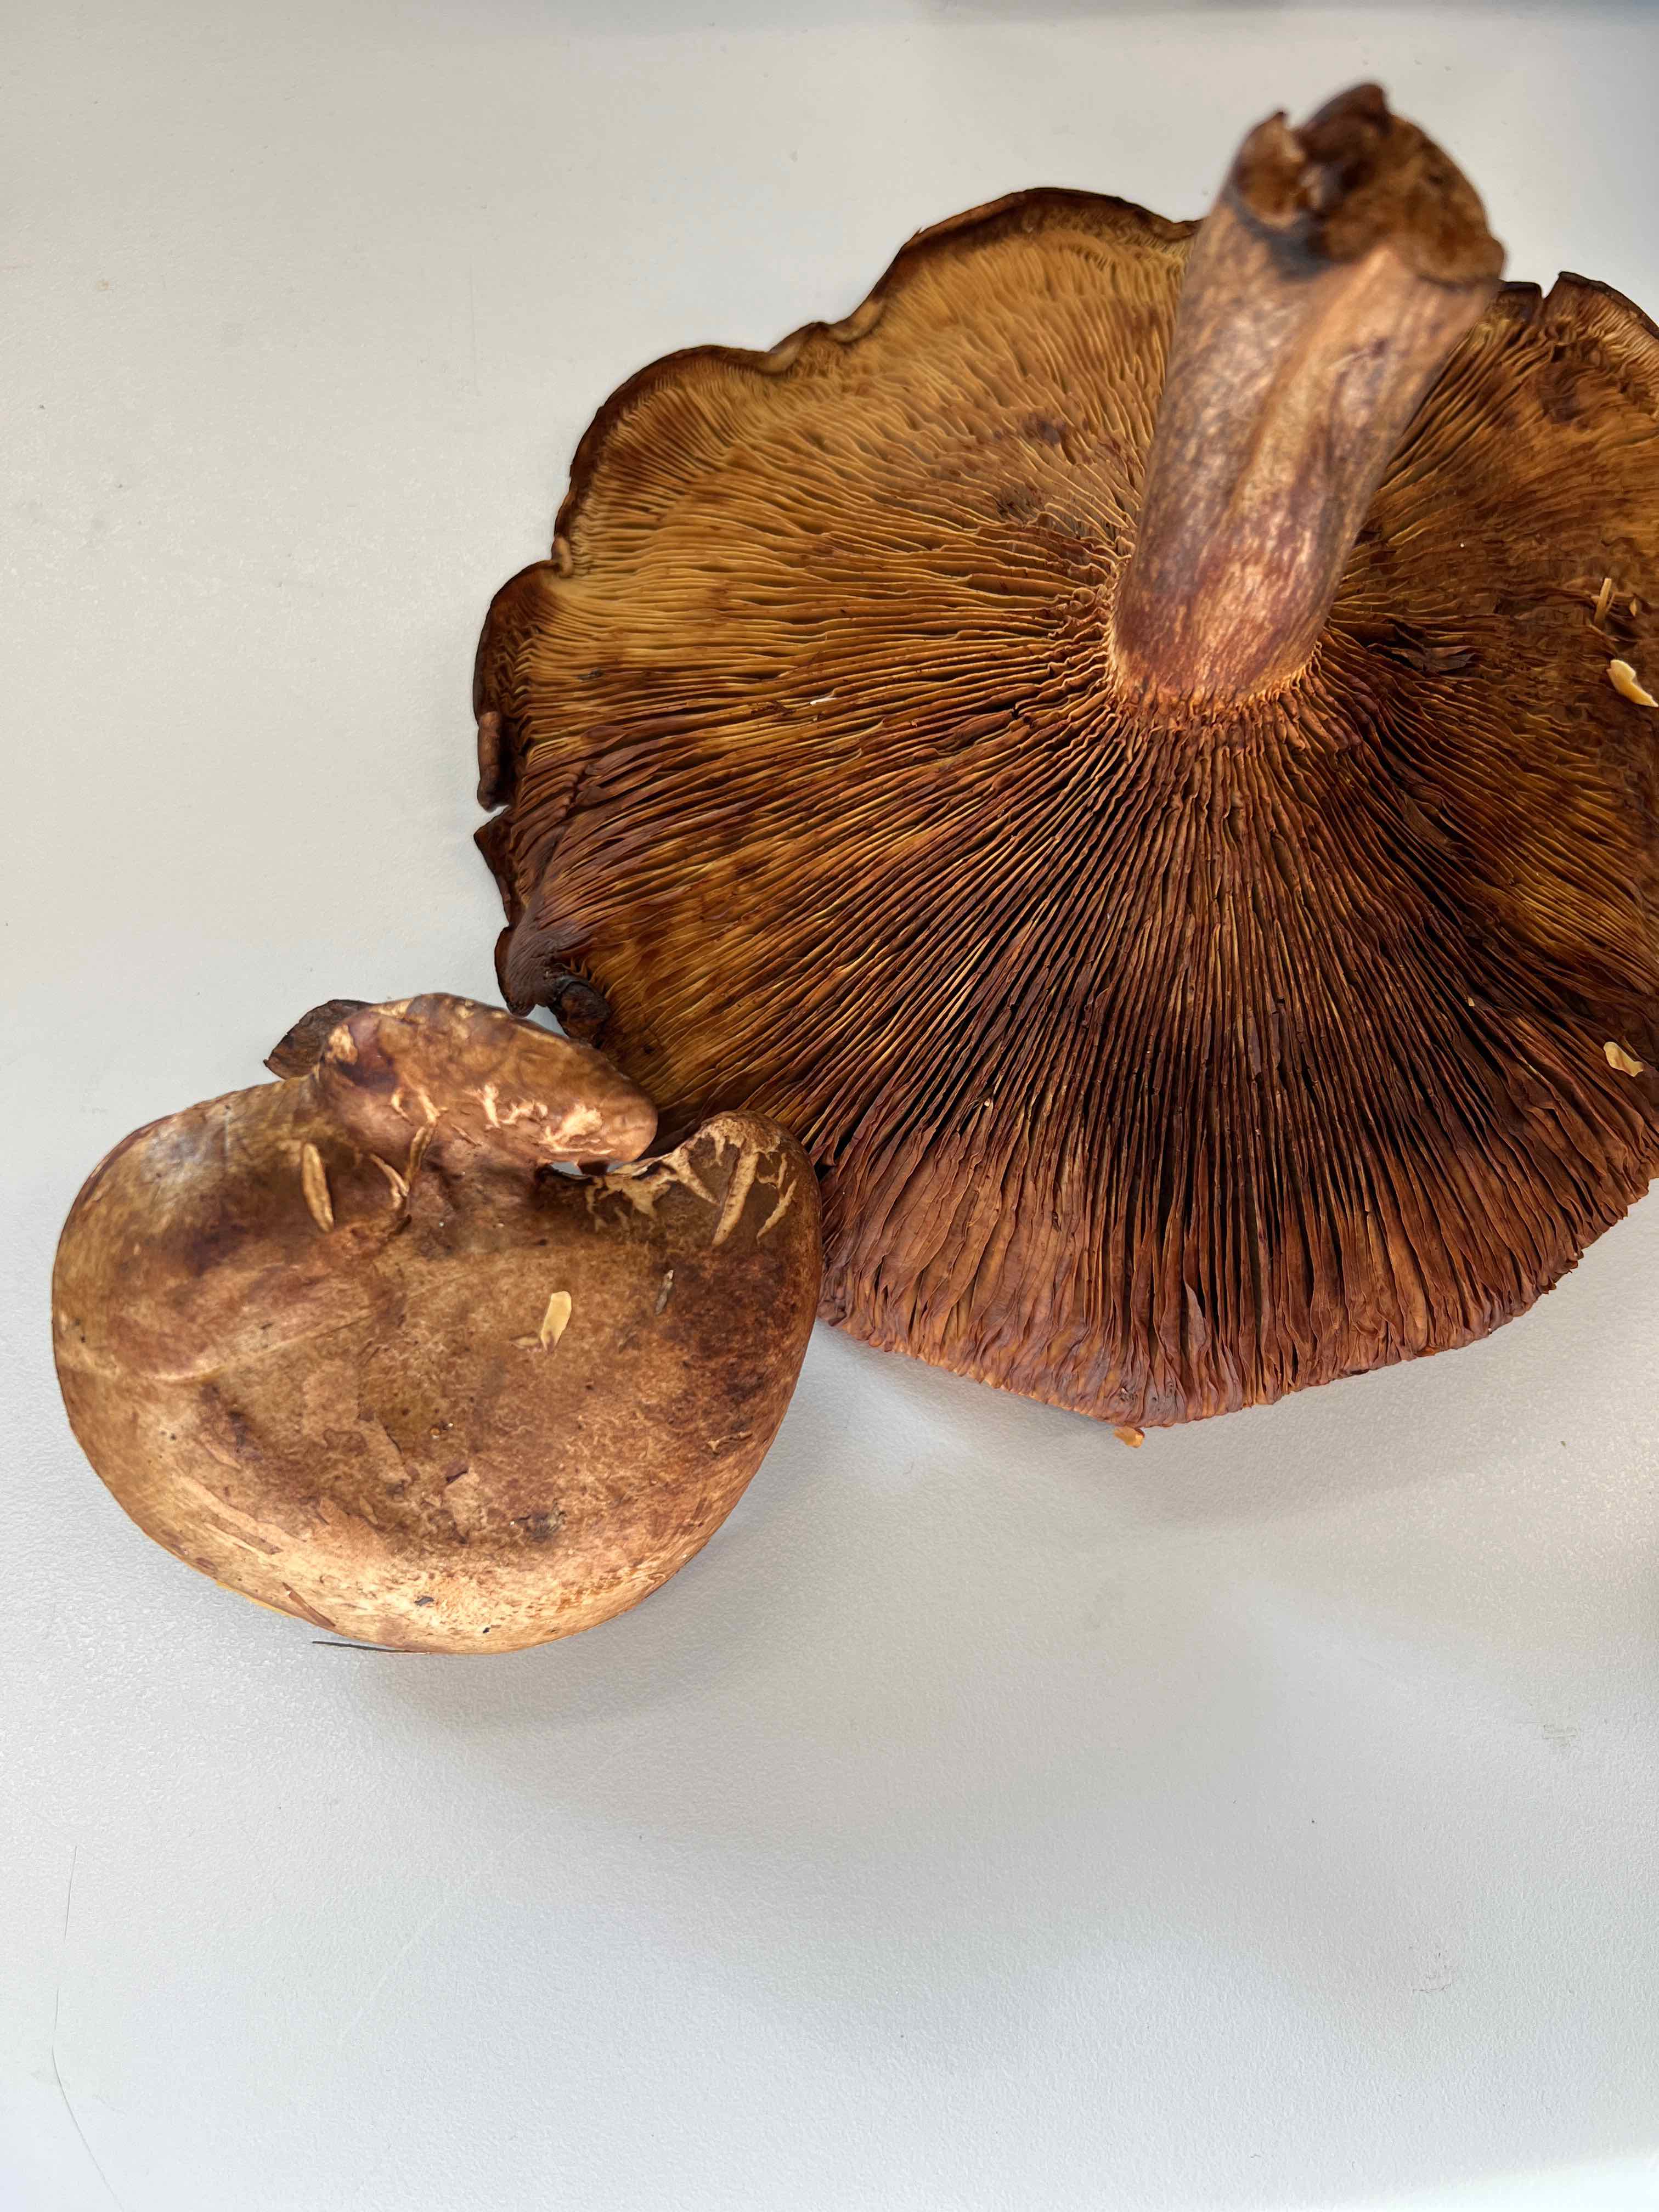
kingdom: Fungi
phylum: Basidiomycota
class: Agaricomycetes
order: Boletales
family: Paxillaceae
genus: Paxillus
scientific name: Paxillus involutus
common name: almindelig netbladhat
